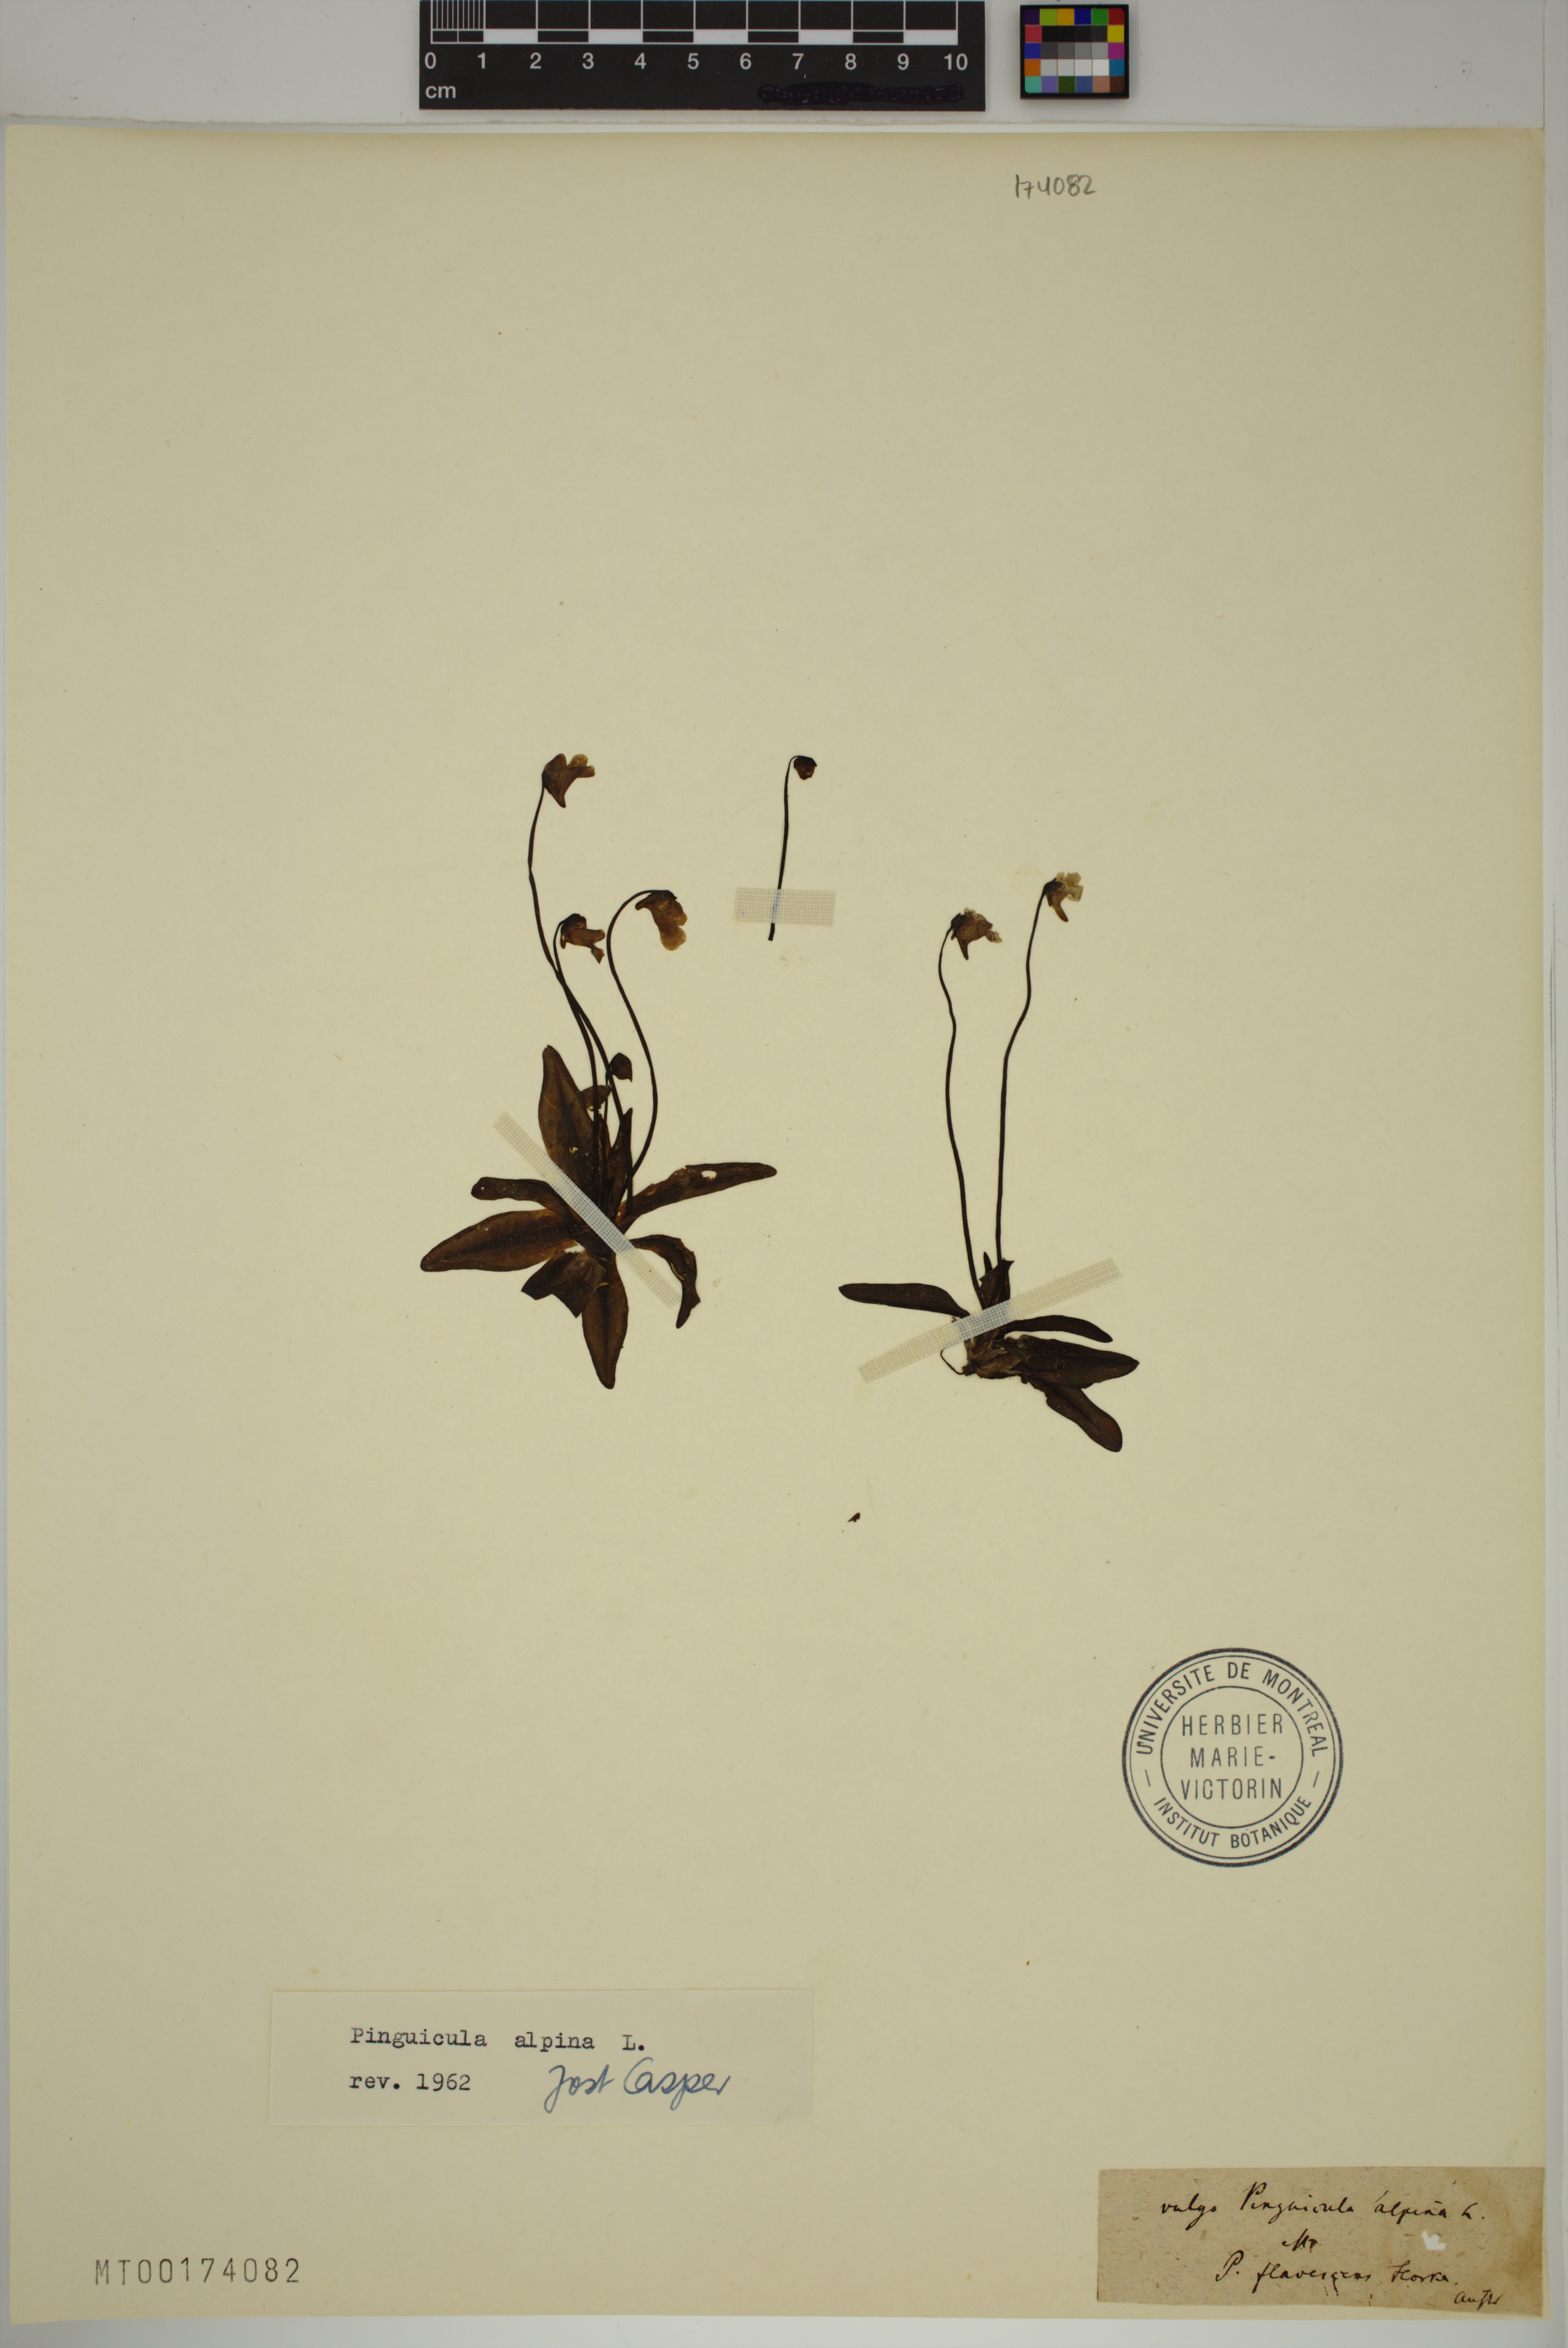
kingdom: Plantae
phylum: Tracheophyta
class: Magnoliopsida
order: Lamiales
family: Lentibulariaceae
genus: Pinguicula
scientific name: Pinguicula alpina
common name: Alpine butterwort
